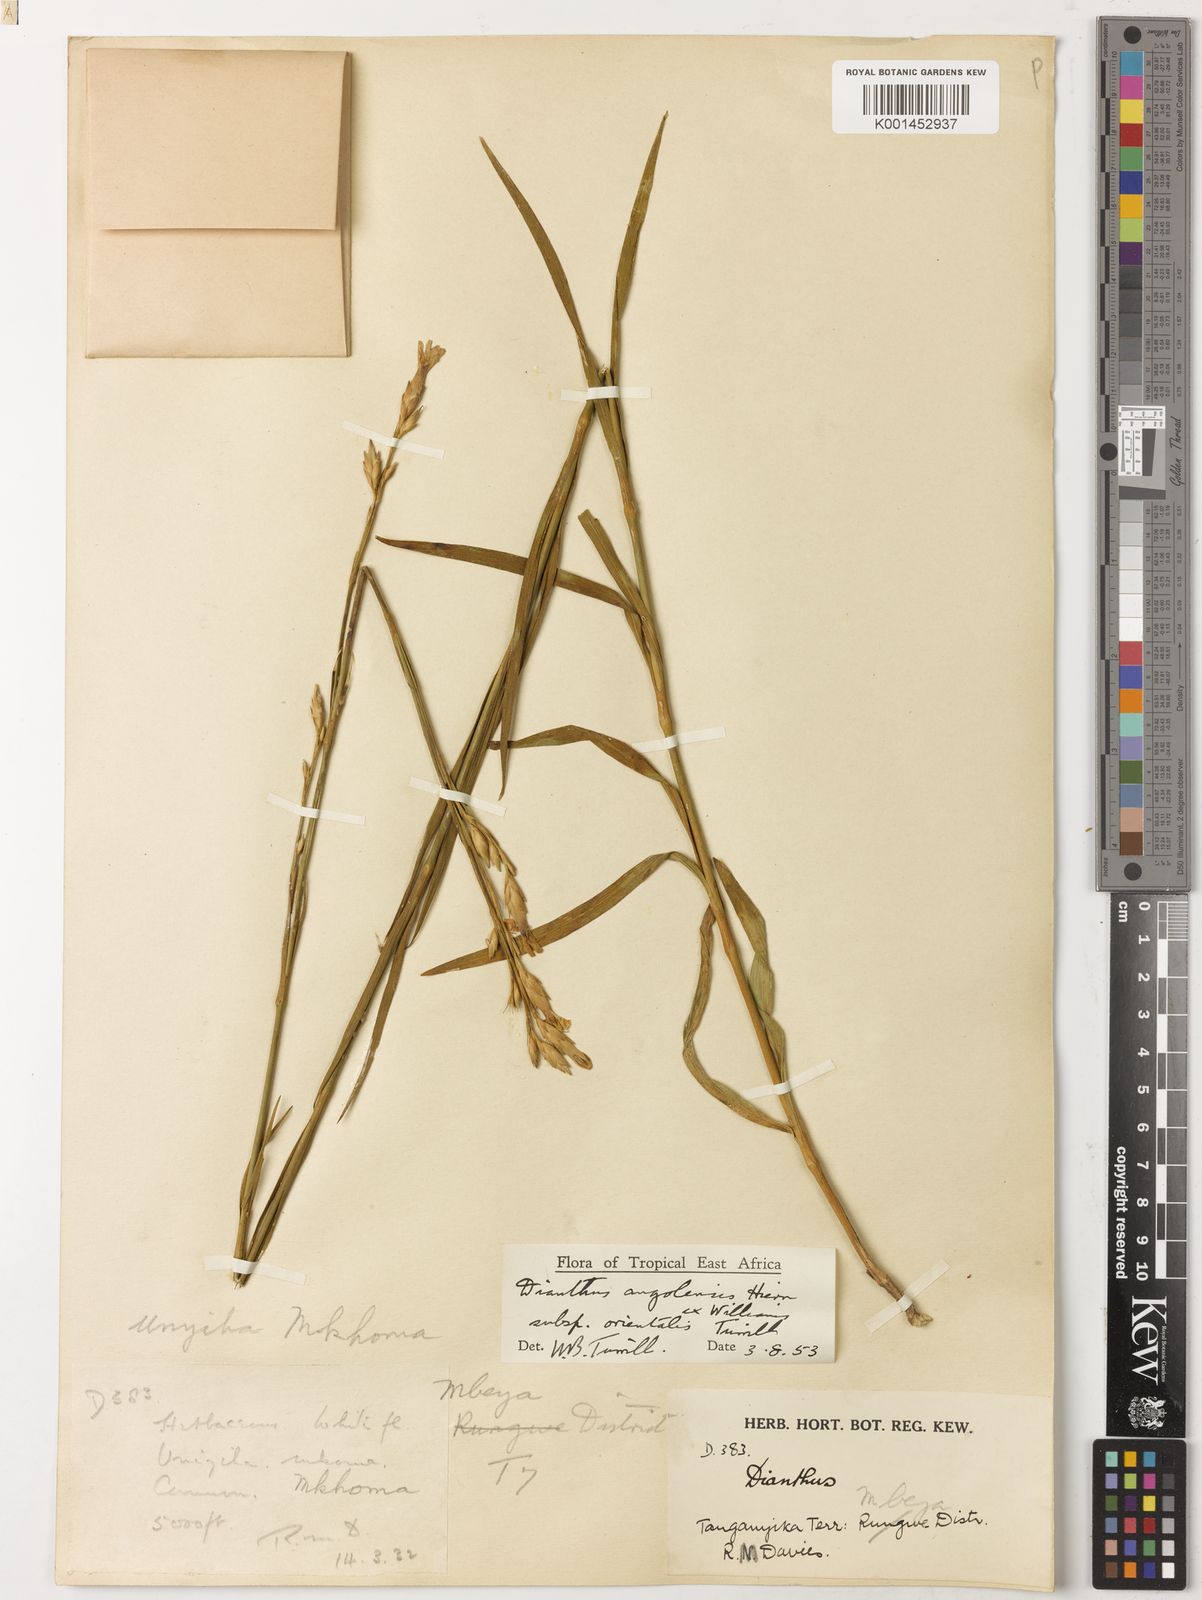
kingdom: Plantae
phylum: Tracheophyta
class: Magnoliopsida
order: Caryophyllales
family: Caryophyllaceae
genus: Dianthus
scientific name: Dianthus angolensis
